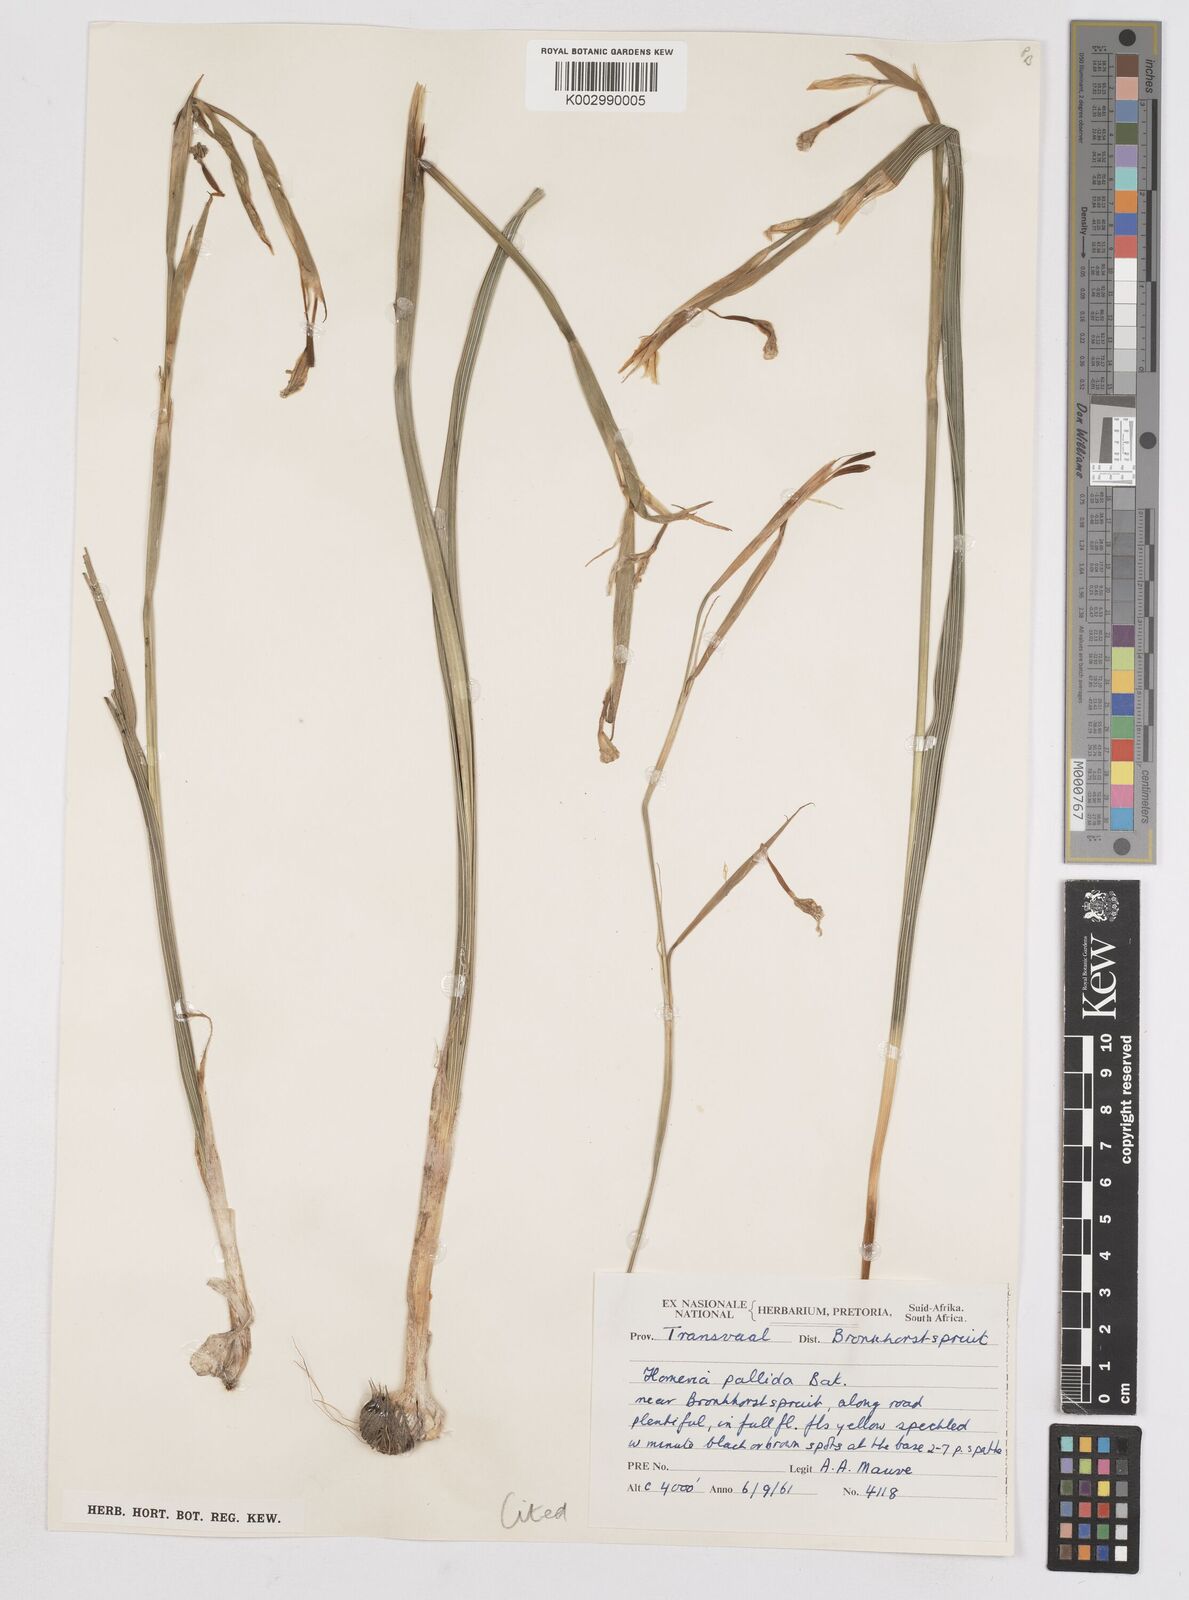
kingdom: Plantae
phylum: Tracheophyta
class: Liliopsida
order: Asparagales
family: Iridaceae
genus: Moraea
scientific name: Moraea pallida
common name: Yellow tulp
